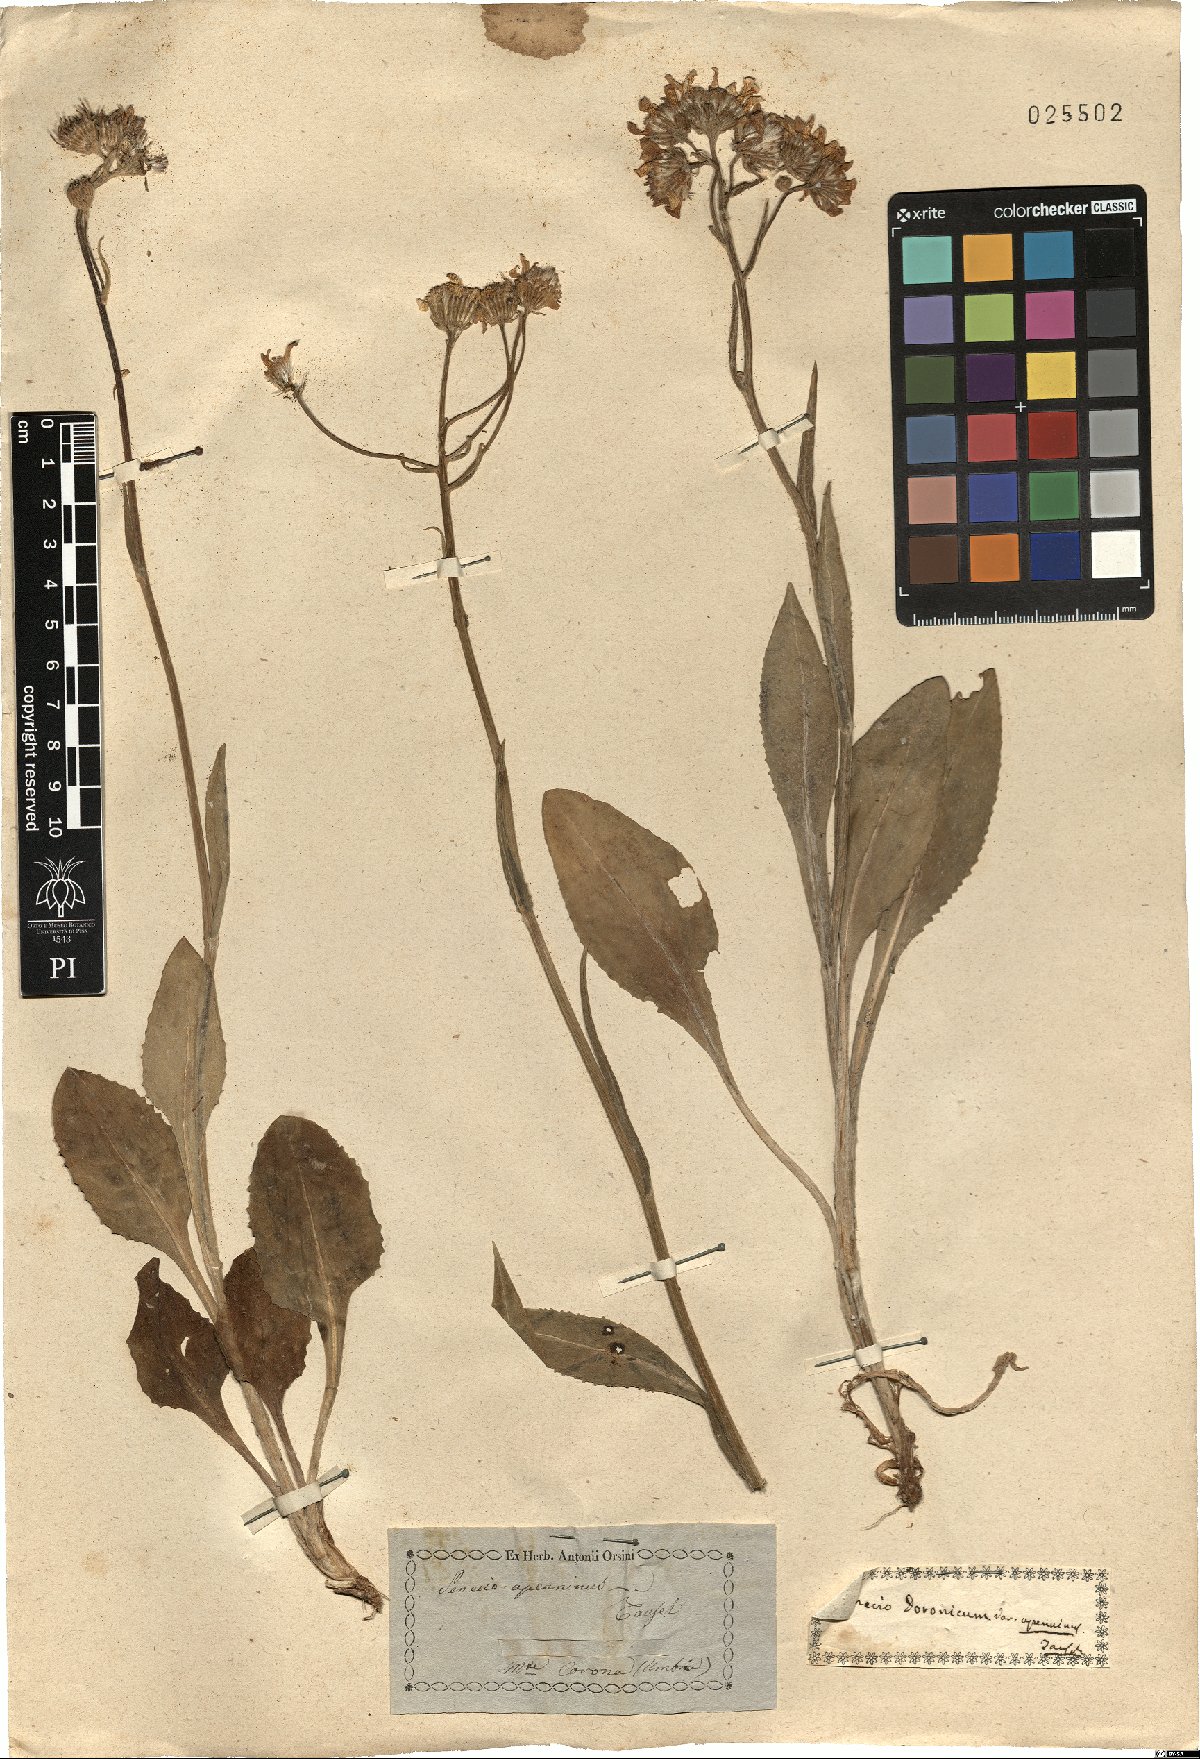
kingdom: Plantae
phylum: Tracheophyta
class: Magnoliopsida
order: Asterales
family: Asteraceae
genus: Senecio
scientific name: Senecio apenninus
